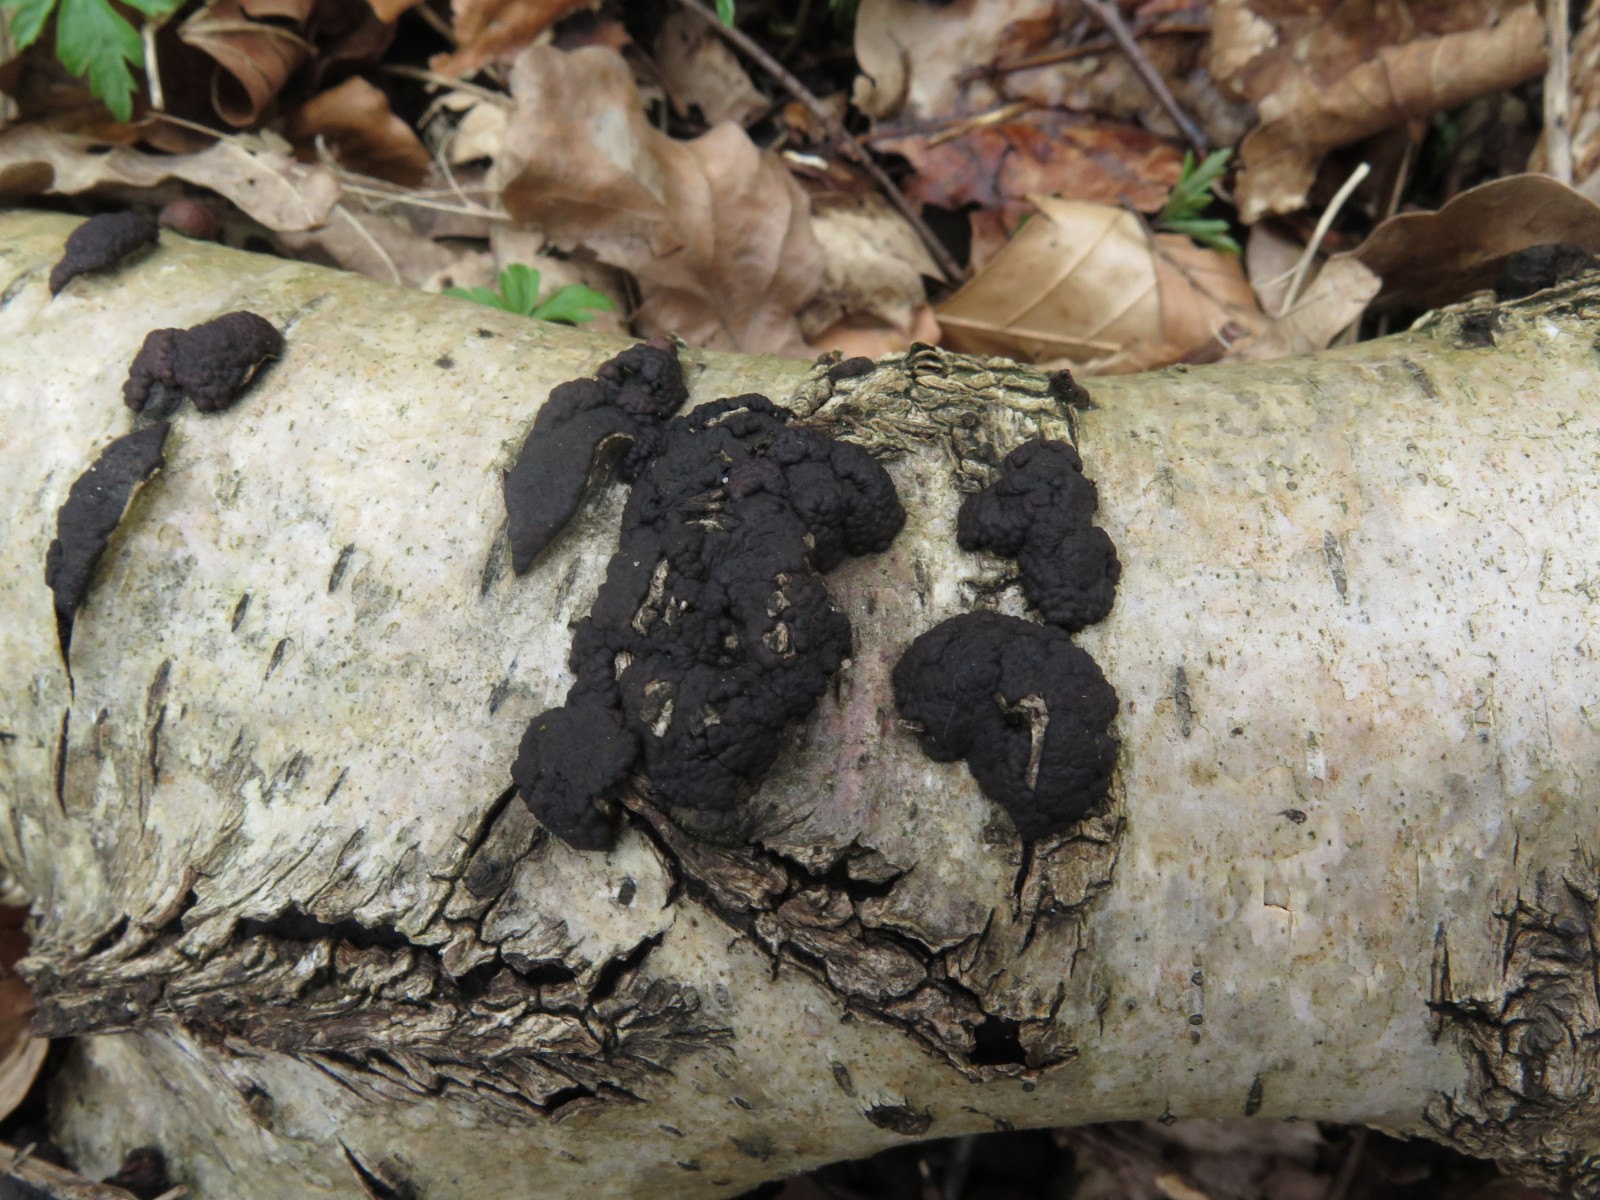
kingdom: Fungi
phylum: Ascomycota
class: Sordariomycetes
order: Xylariales
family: Hypoxylaceae
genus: Jackrogersella
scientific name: Jackrogersella multiformis
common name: foranderlig kulbær
